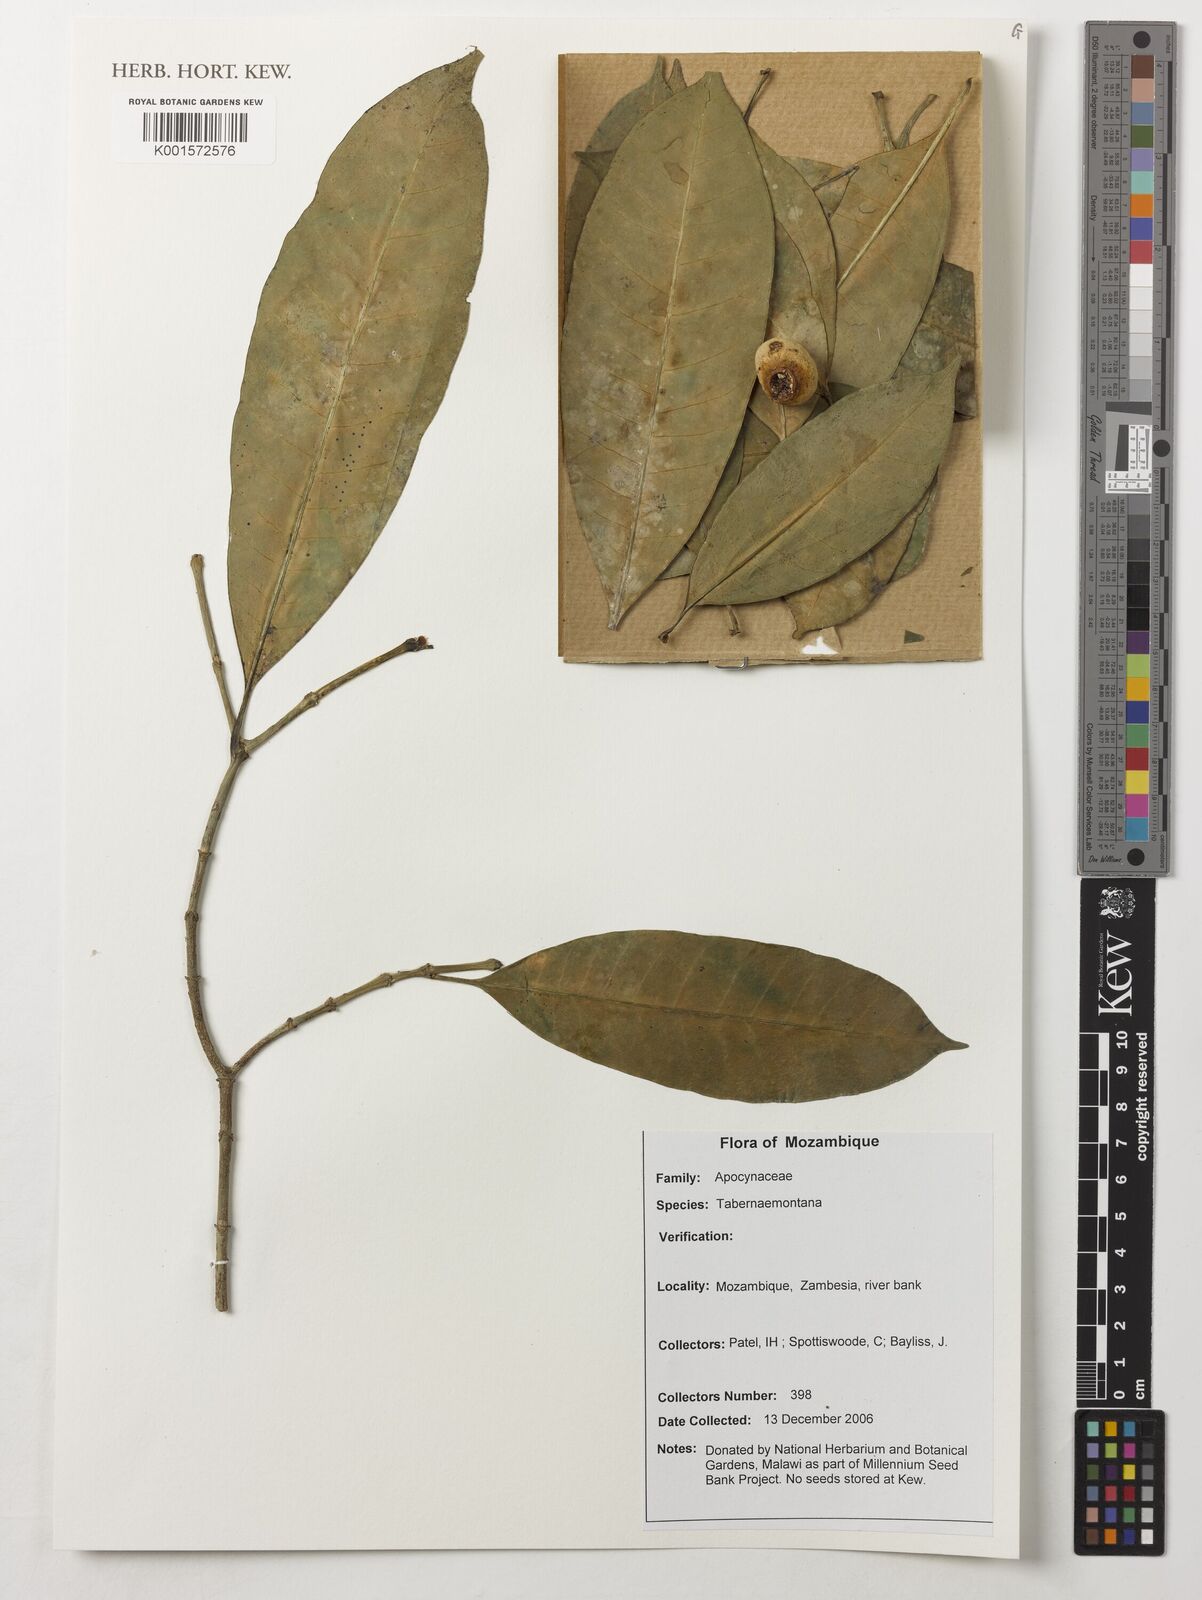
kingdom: Plantae
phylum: Tracheophyta
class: Magnoliopsida
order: Gentianales
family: Apocynaceae
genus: Tabernaemontana
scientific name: Tabernaemontana
